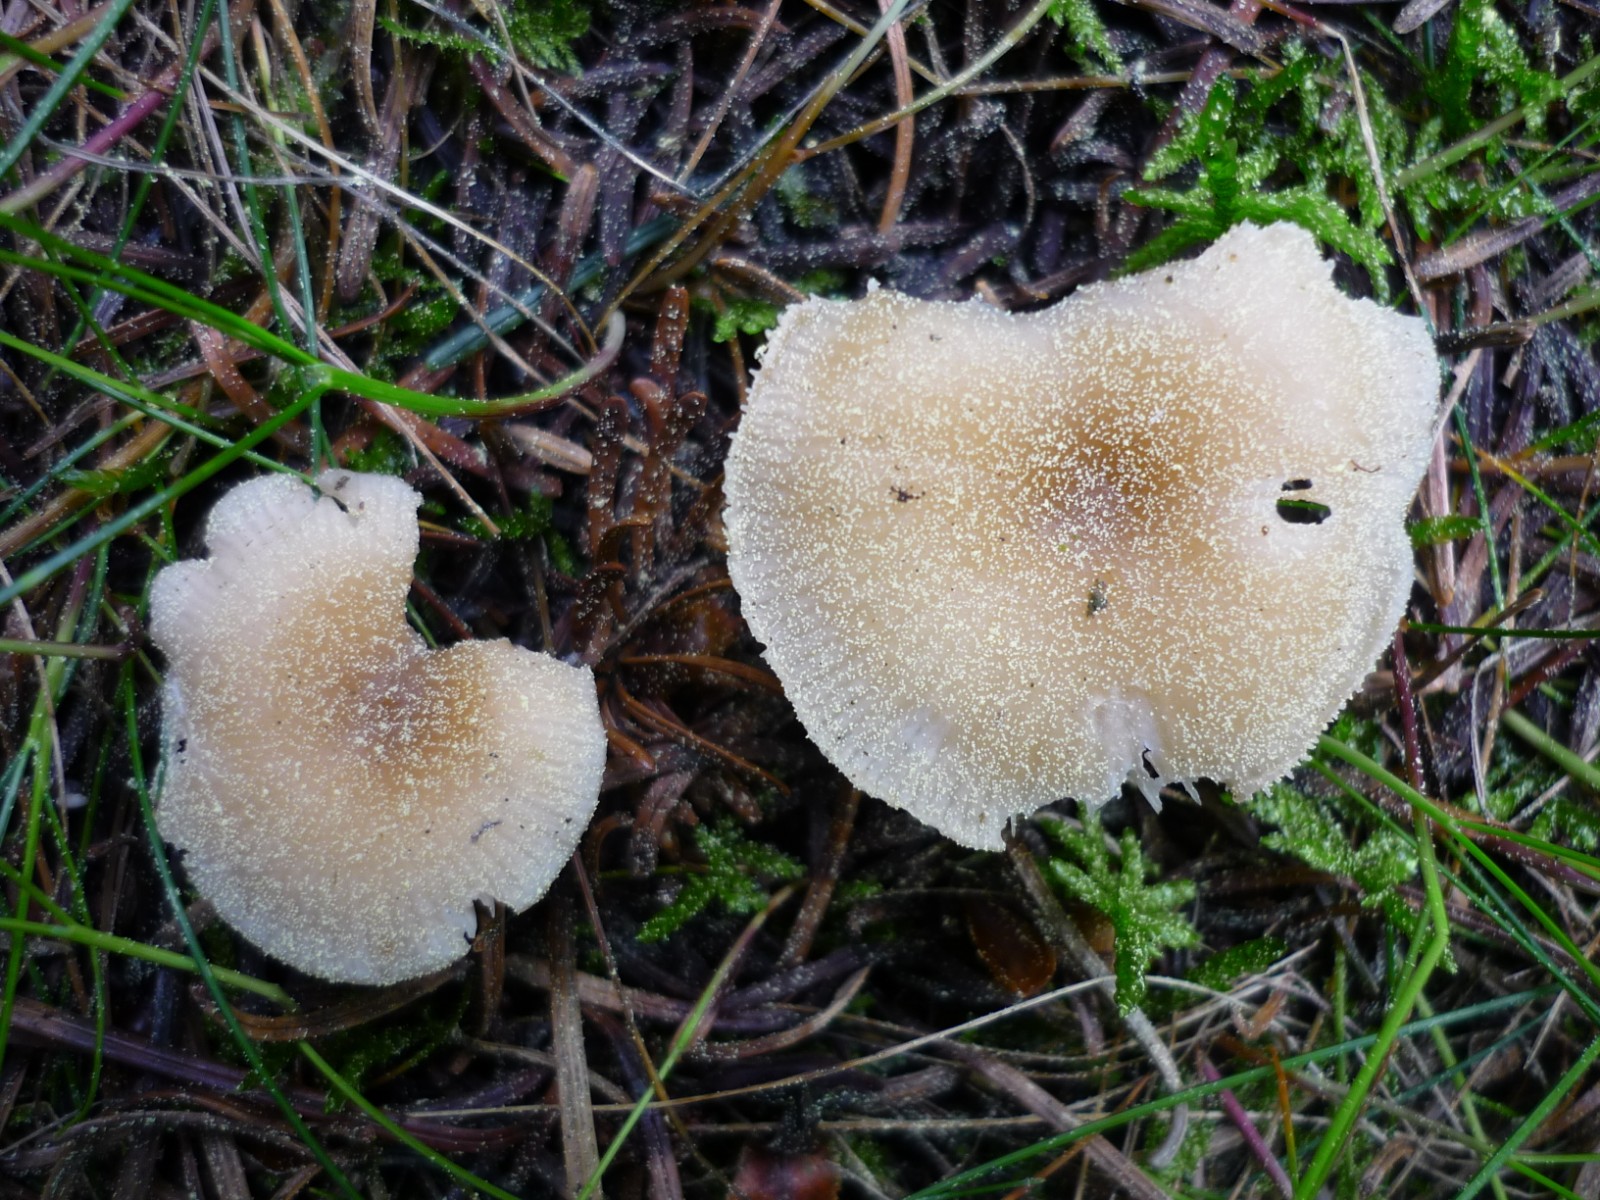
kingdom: Fungi
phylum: Basidiomycota
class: Agaricomycetes
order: Agaricales
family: Tricholomataceae
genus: Clitocybe
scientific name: Clitocybe fragrans
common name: vellugtende tragthat
